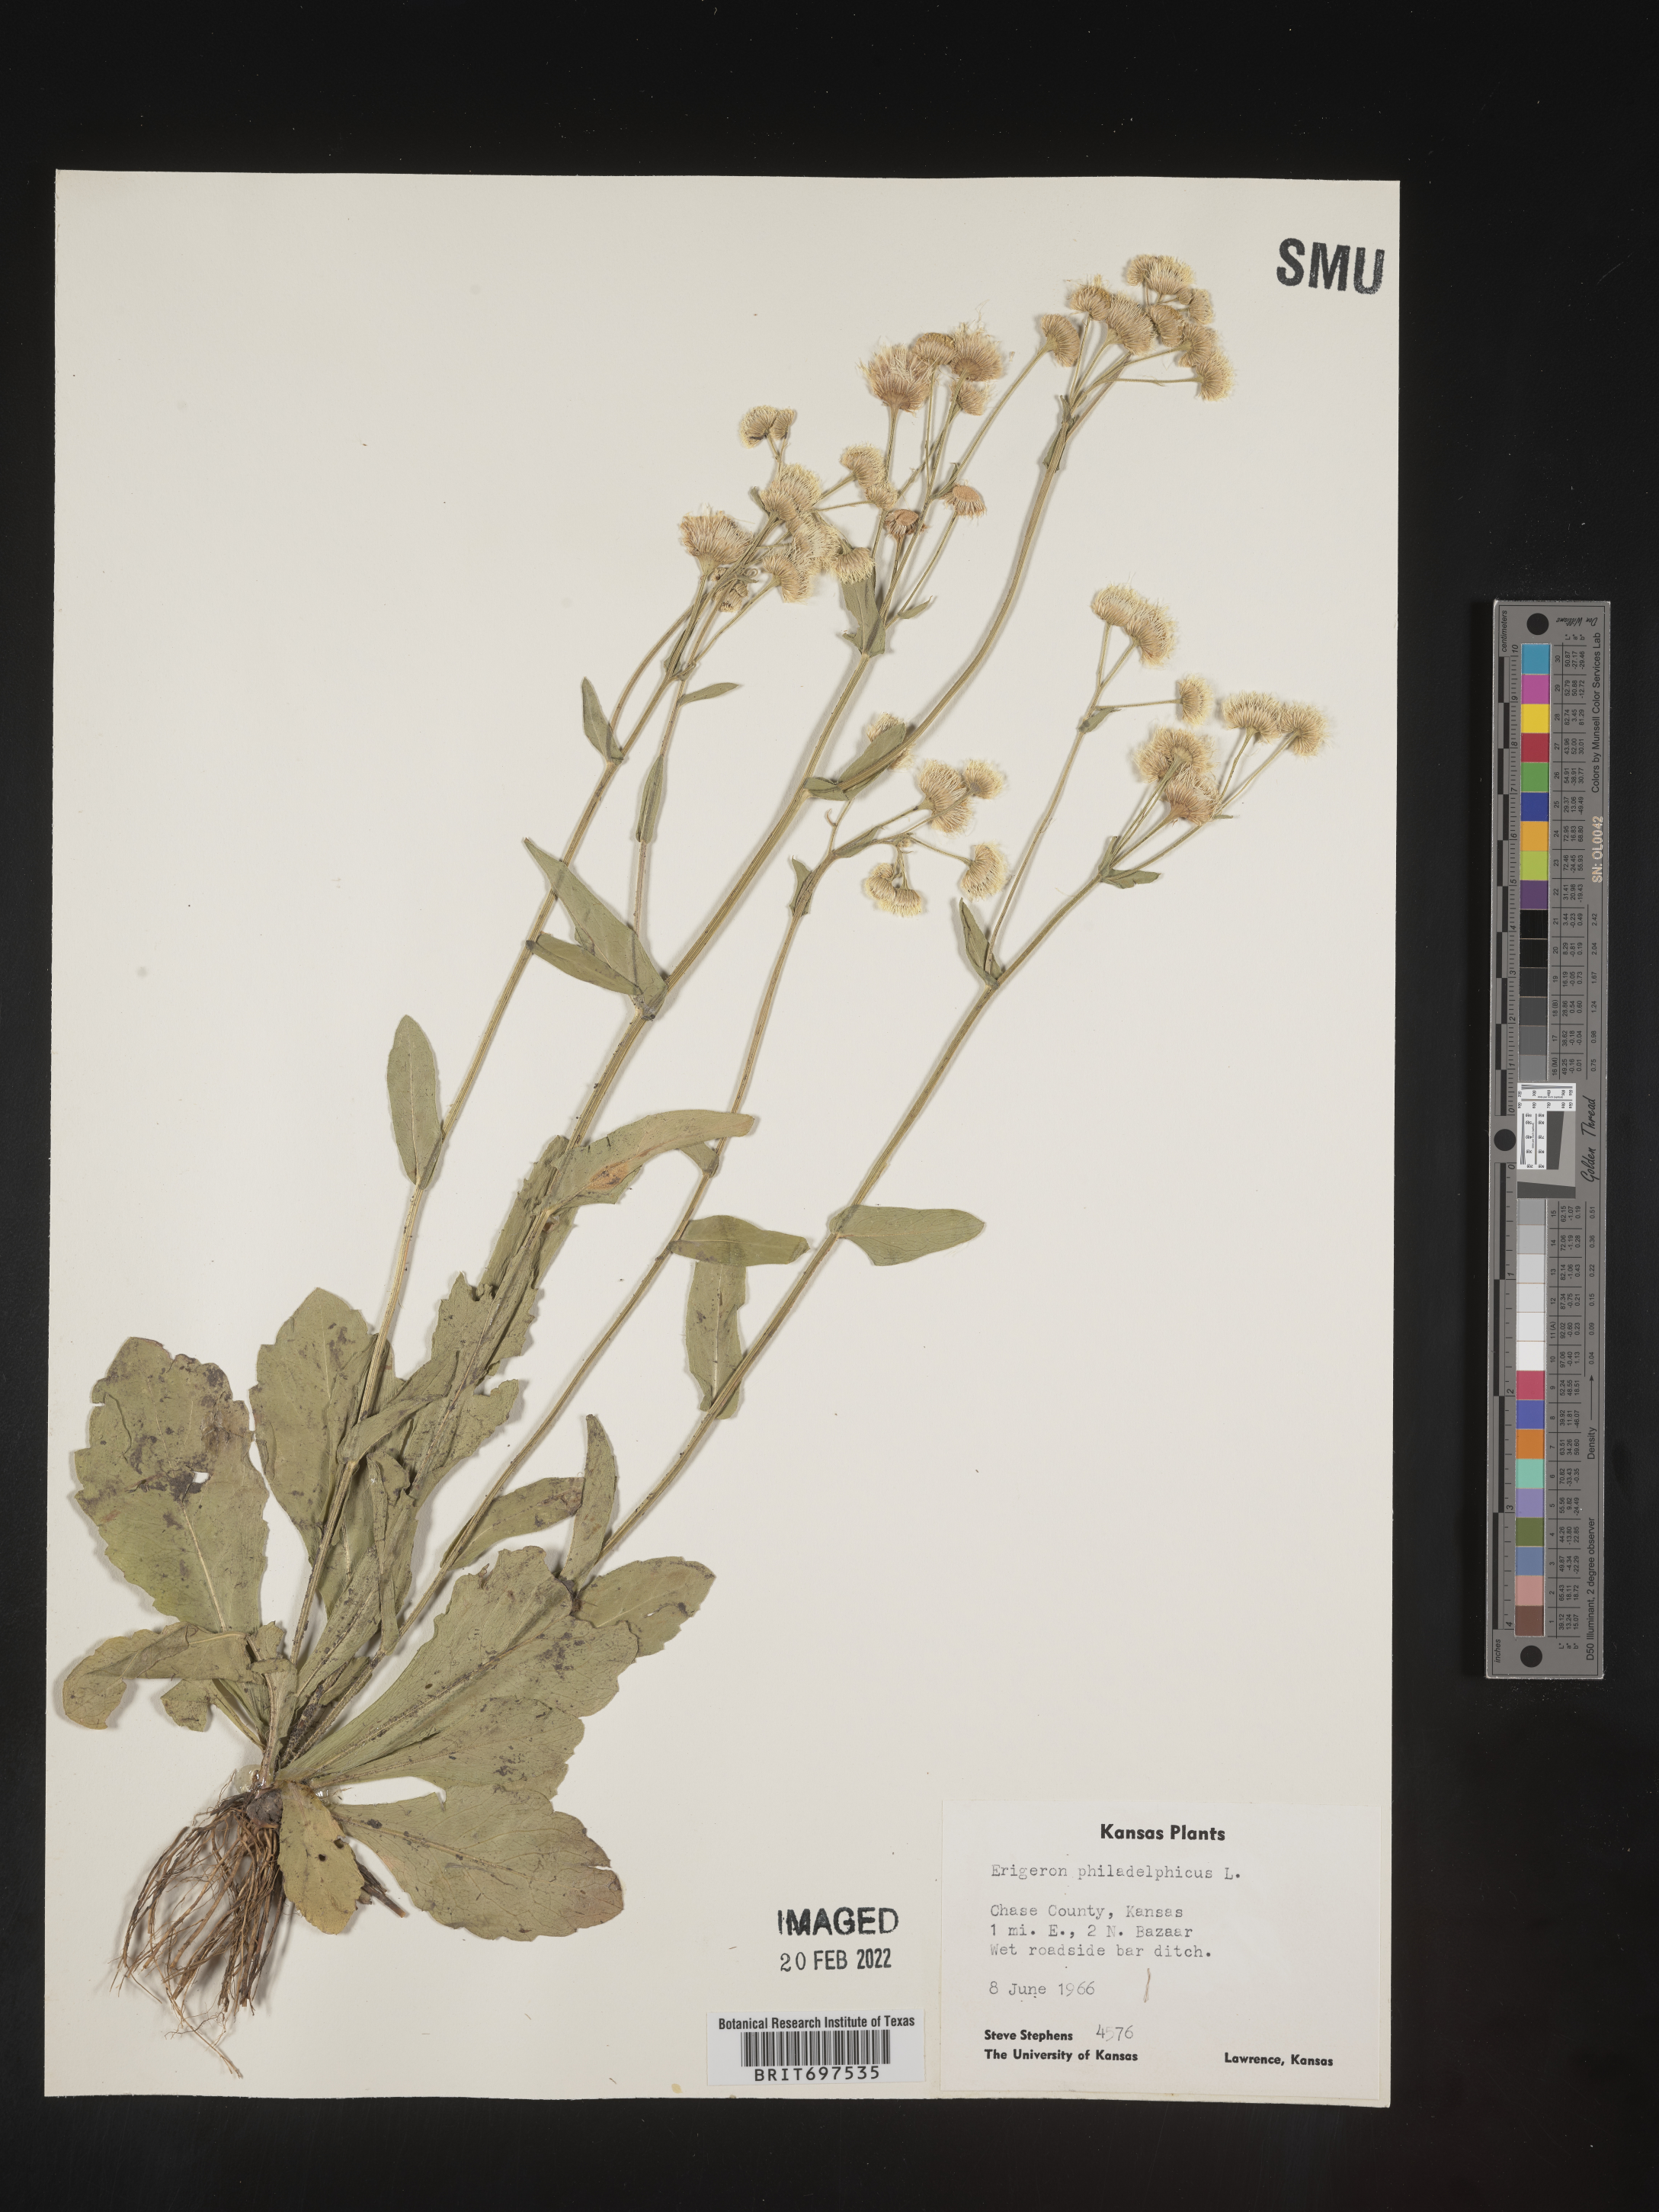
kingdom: Plantae
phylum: Tracheophyta
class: Magnoliopsida
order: Asterales
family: Asteraceae
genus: Erigeron
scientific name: Erigeron philadelphicus
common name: Robin's-plantain
